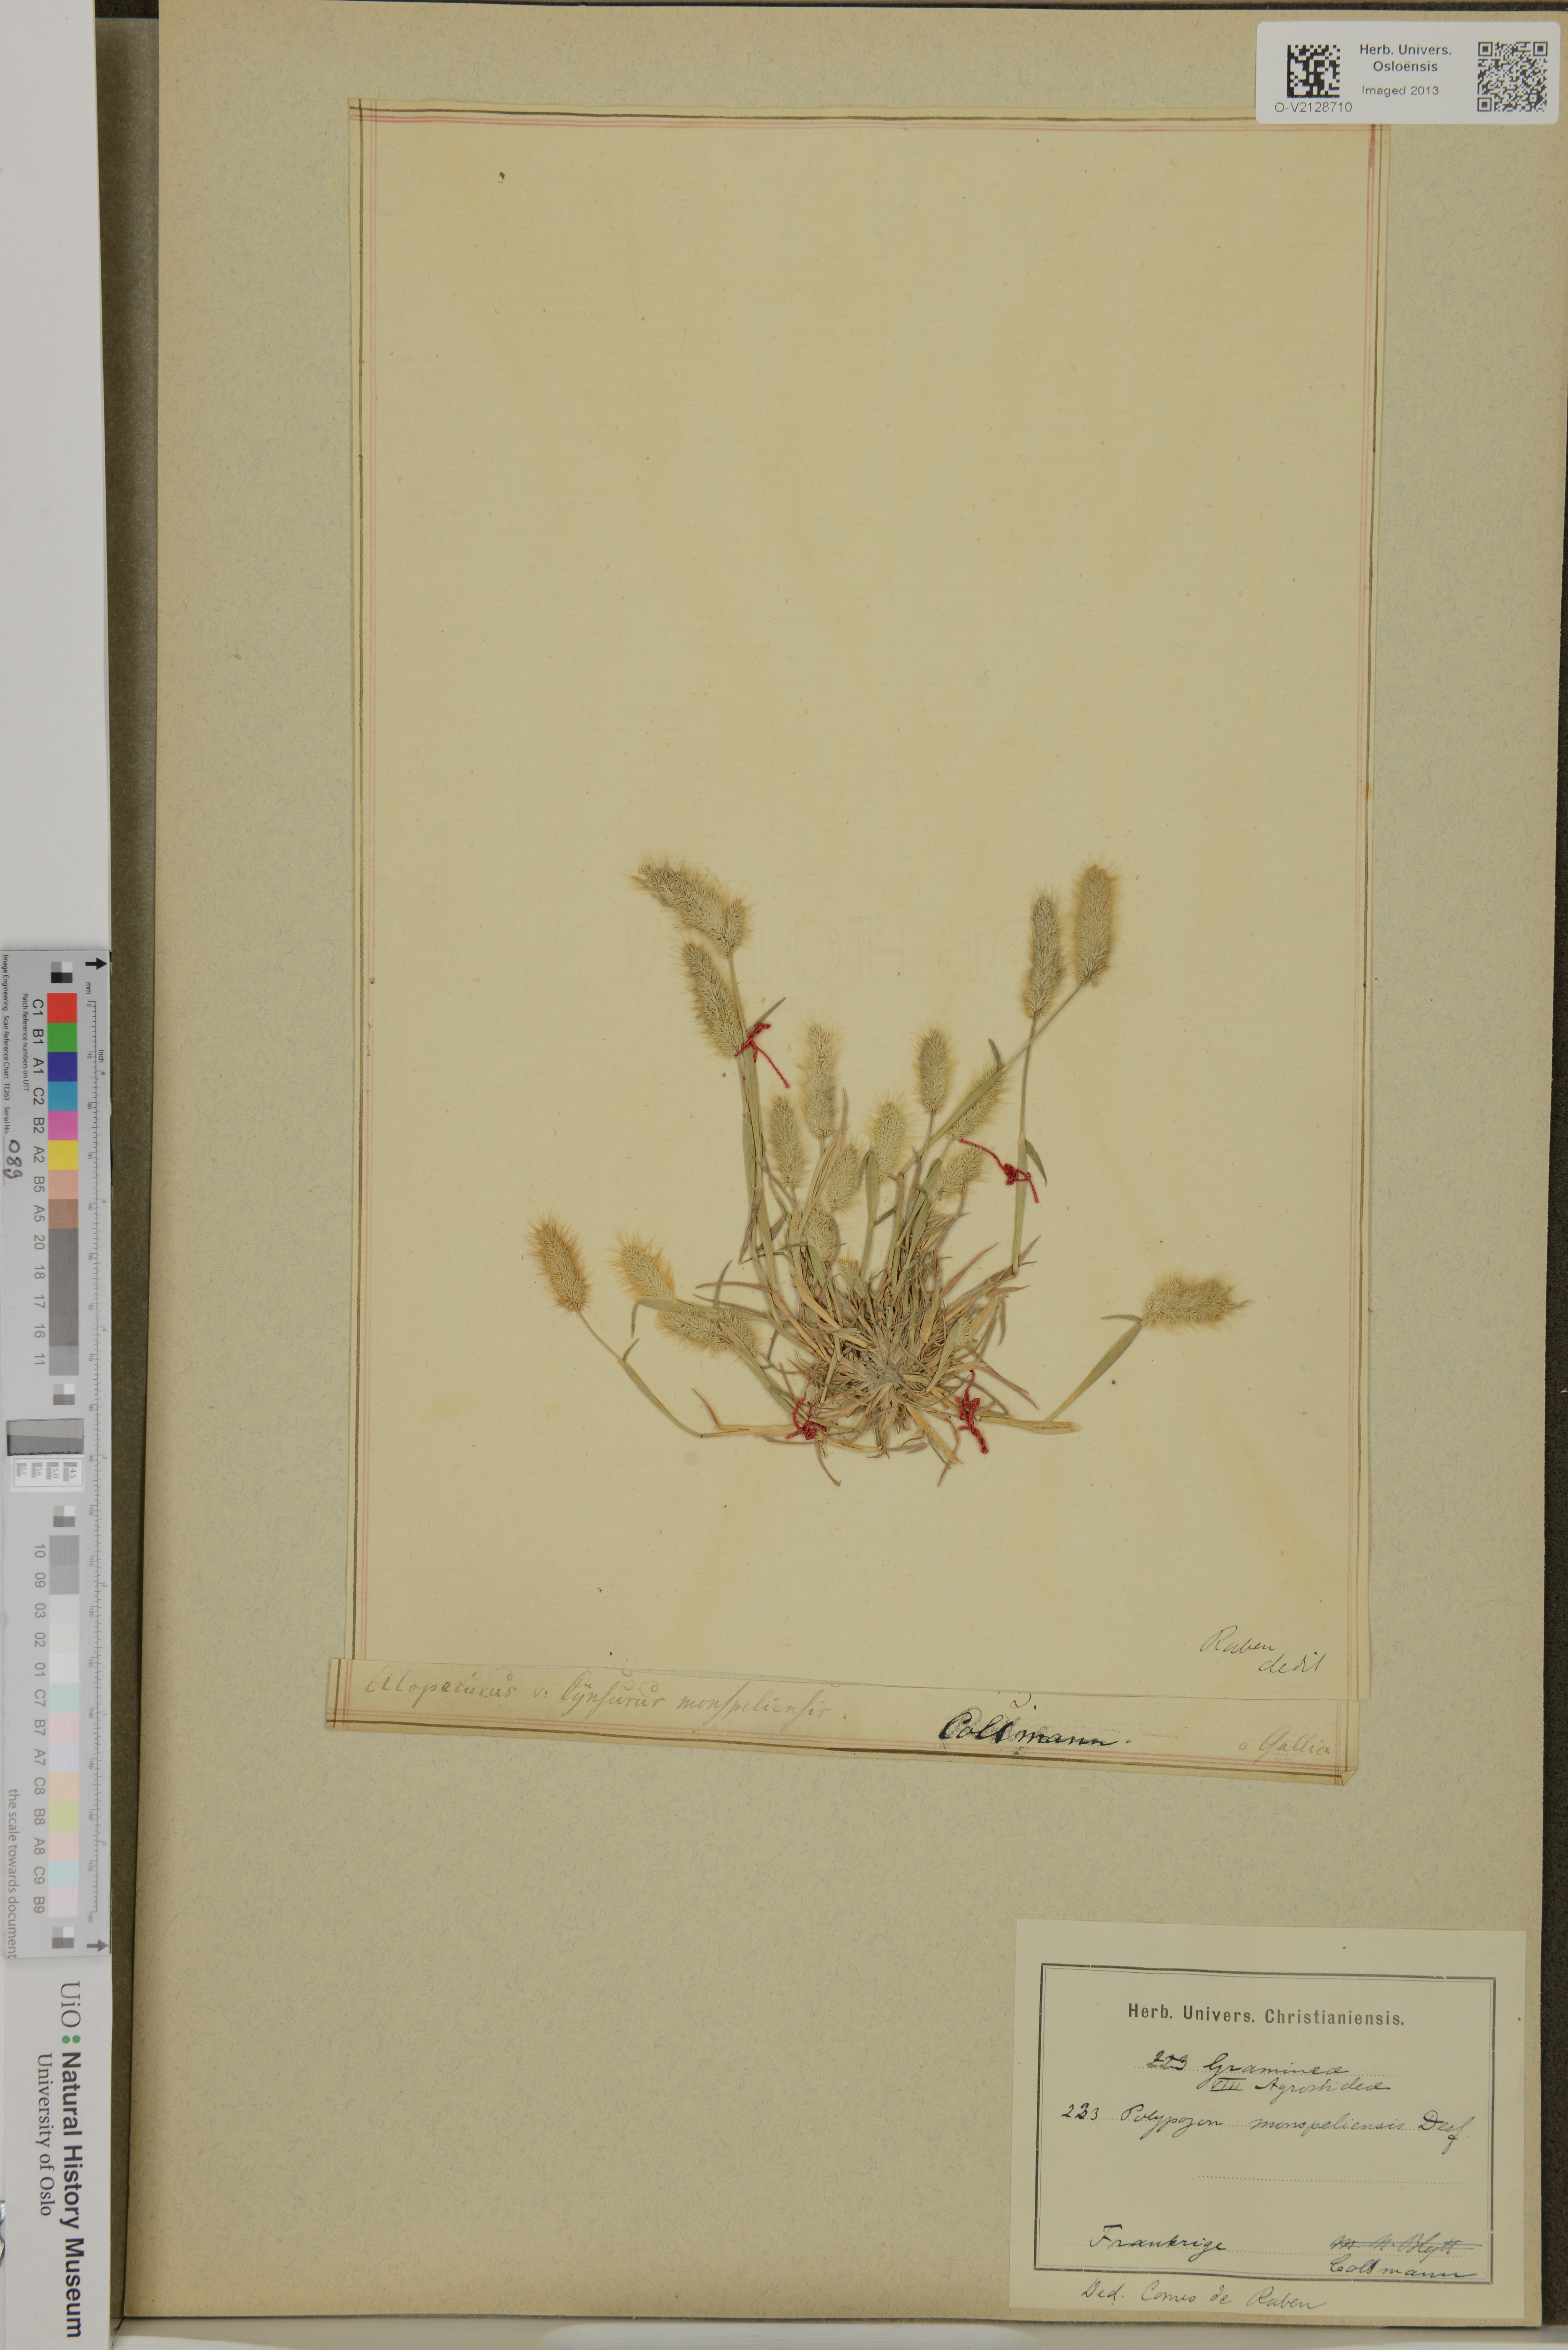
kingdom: Plantae
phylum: Tracheophyta
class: Liliopsida
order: Poales
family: Poaceae
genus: Polypogon
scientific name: Polypogon monspeliensis
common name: Annual rabbitsfoot grass
